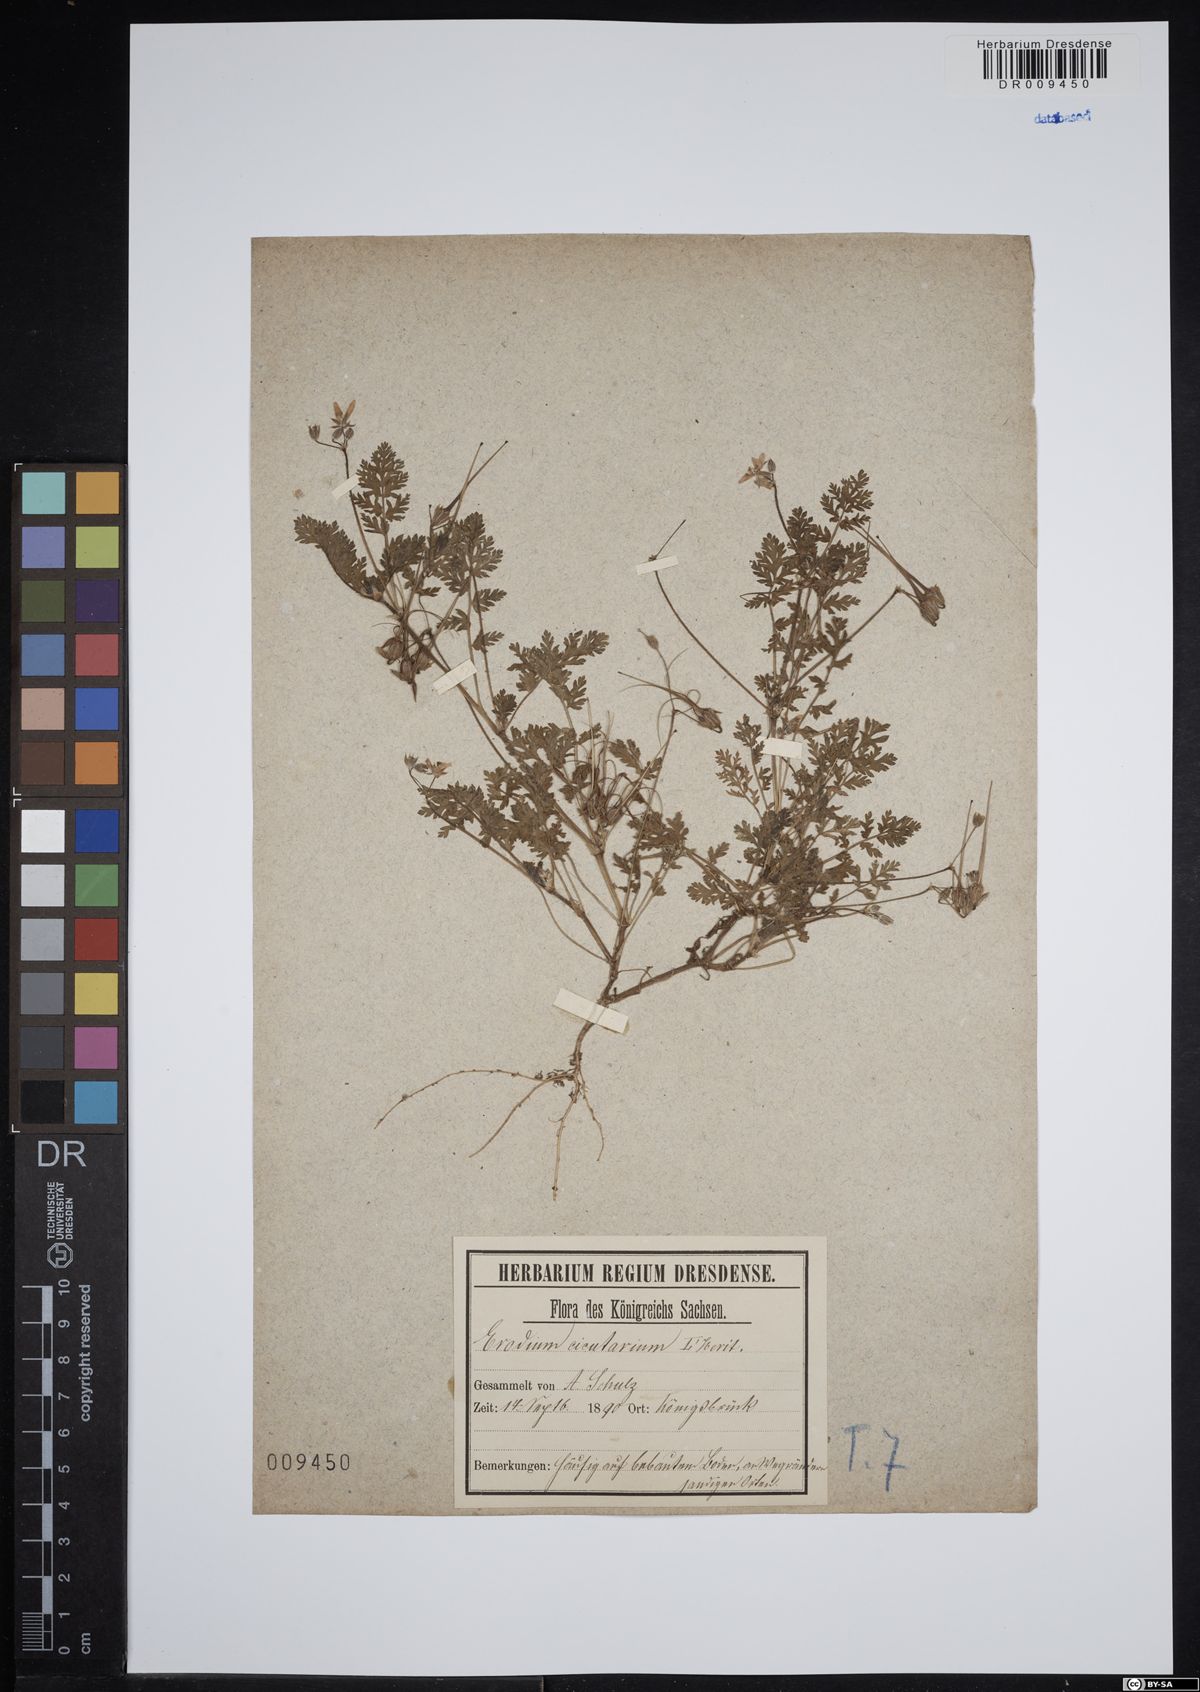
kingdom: Plantae
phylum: Tracheophyta
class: Magnoliopsida
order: Geraniales
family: Geraniaceae
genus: Erodium
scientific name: Erodium cicutarium
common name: Common stork's-bill
